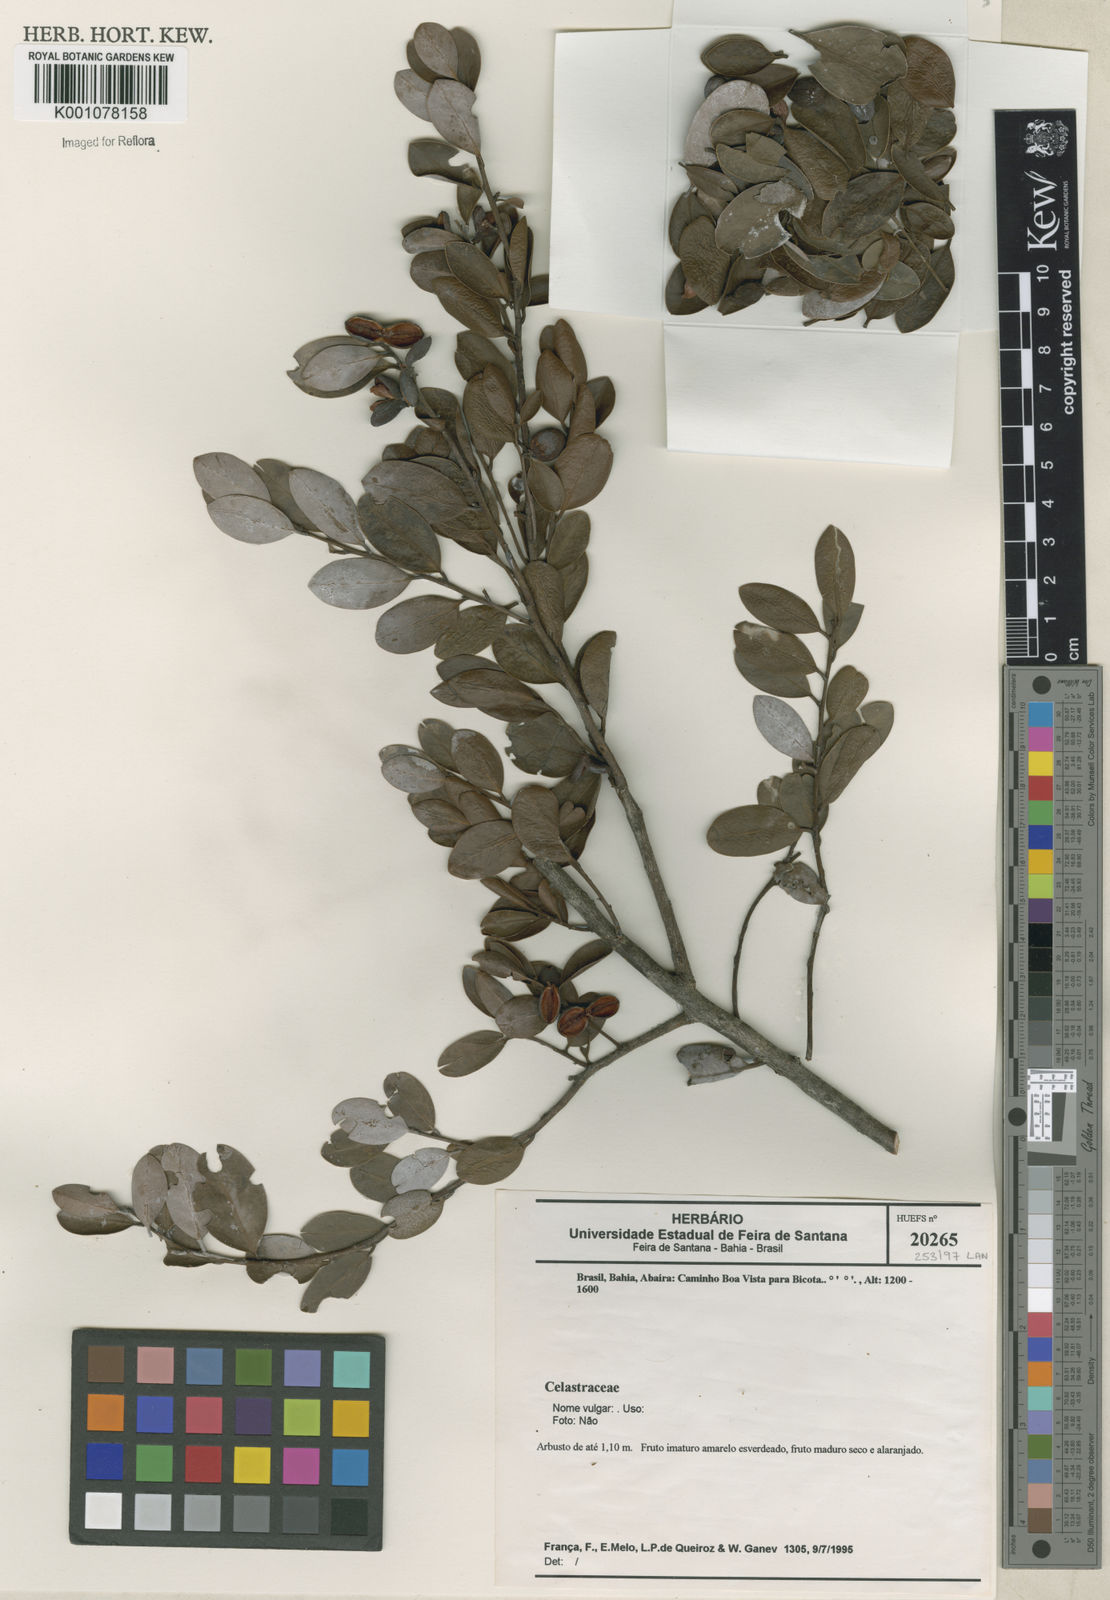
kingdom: Plantae
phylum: Tracheophyta
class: Magnoliopsida
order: Celastrales
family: Celastraceae
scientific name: Celastraceae
